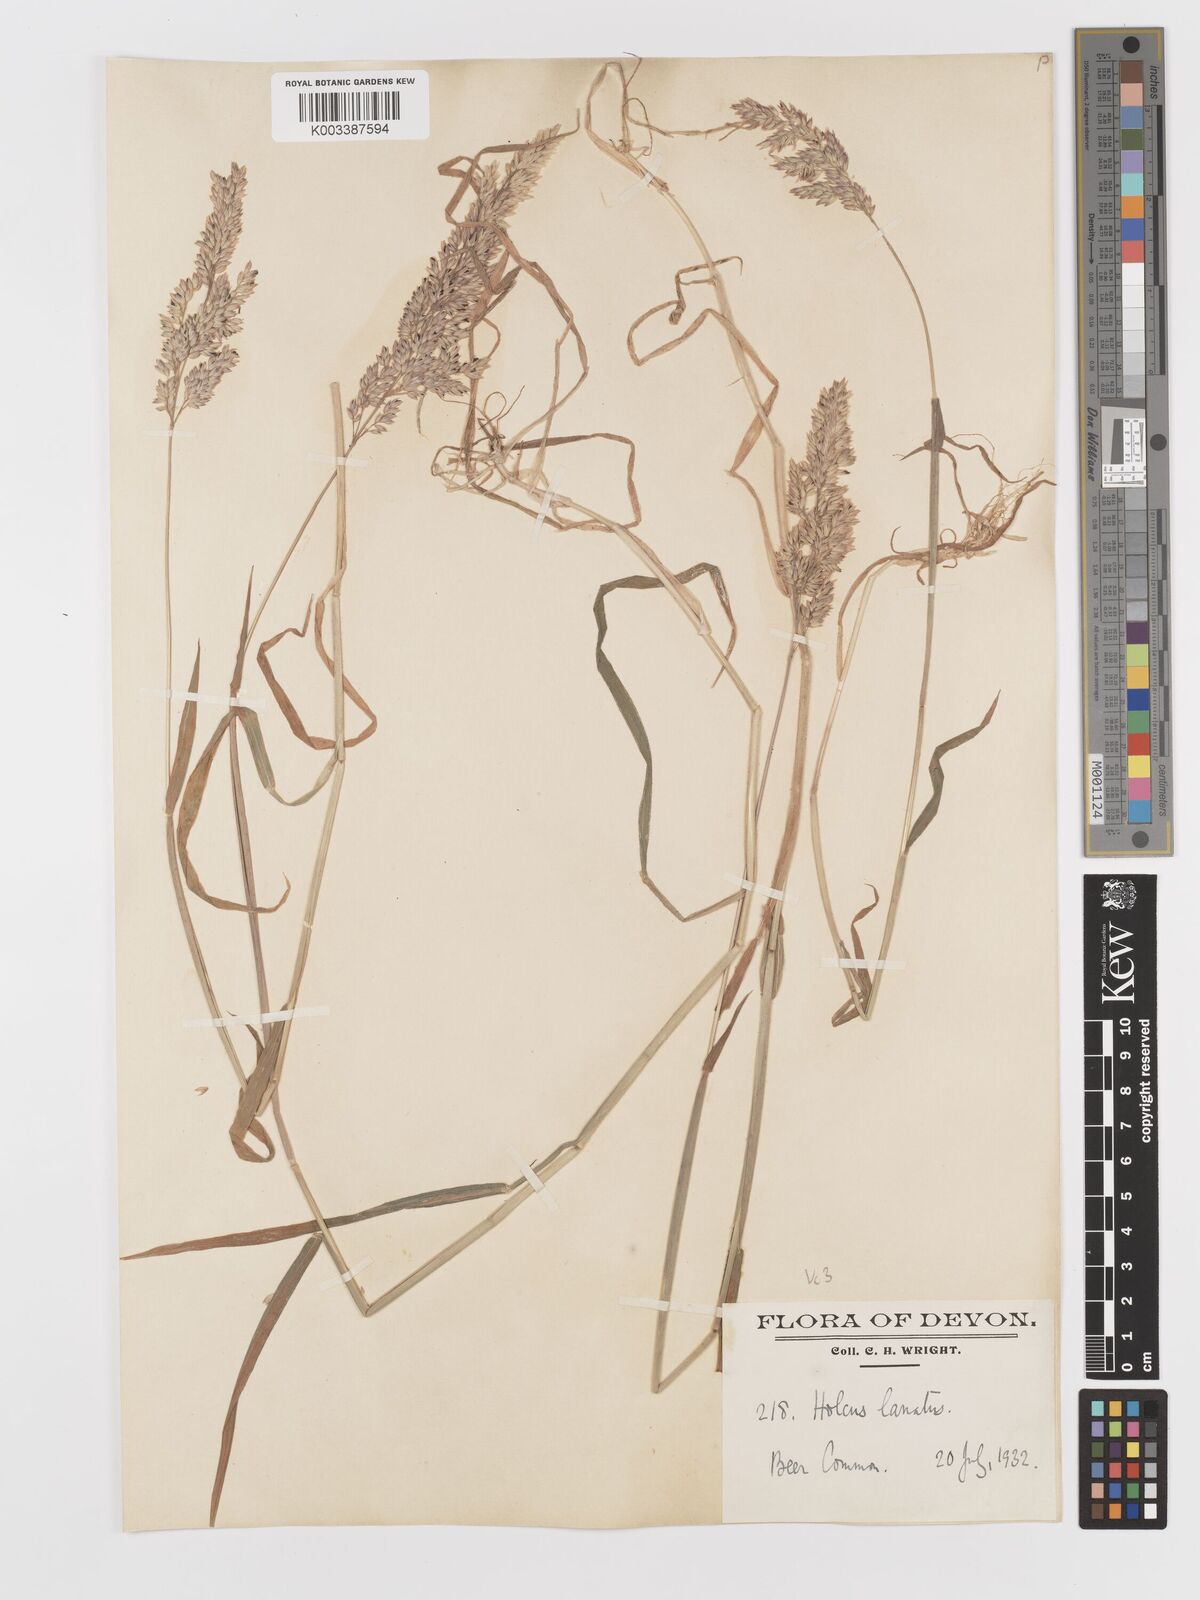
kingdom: Plantae
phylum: Tracheophyta
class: Liliopsida
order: Poales
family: Poaceae
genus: Holcus
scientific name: Holcus lanatus
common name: Yorkshire-fog
